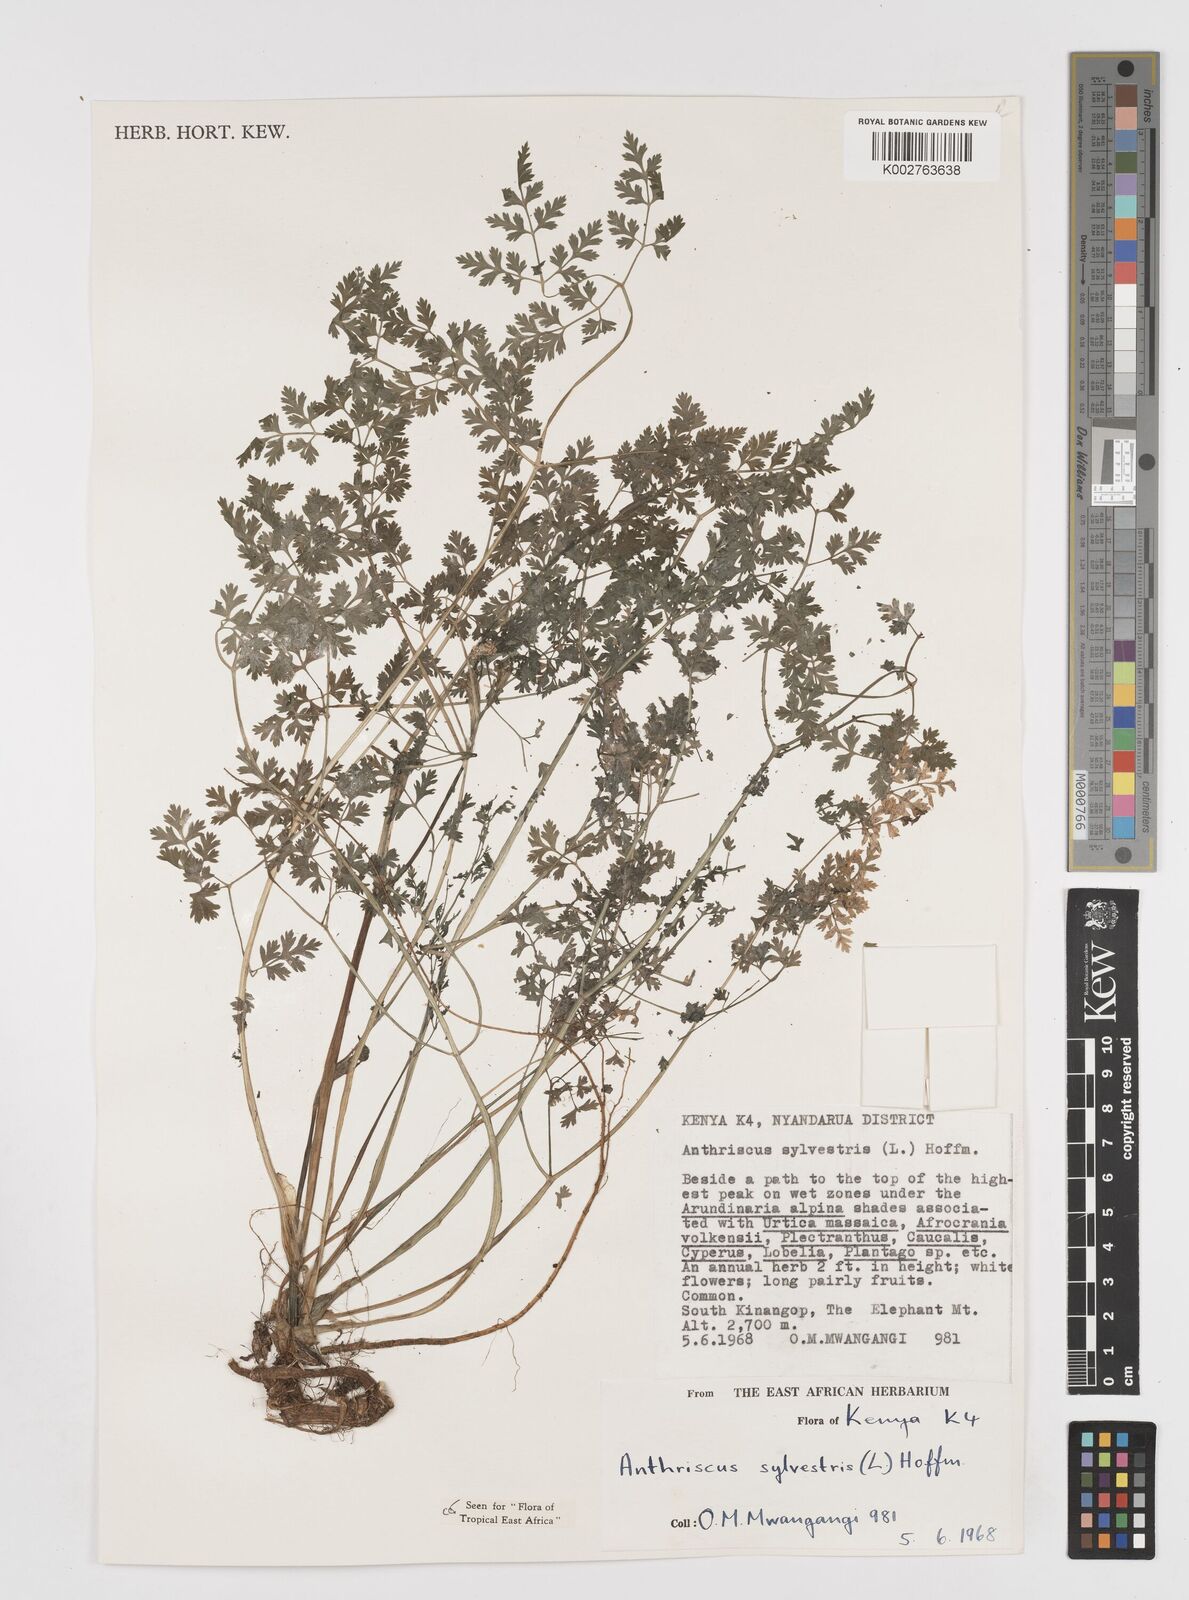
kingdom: Plantae
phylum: Tracheophyta
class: Magnoliopsida
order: Apiales
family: Apiaceae
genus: Anthriscus
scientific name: Anthriscus sylvestris
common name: Cow parsley
